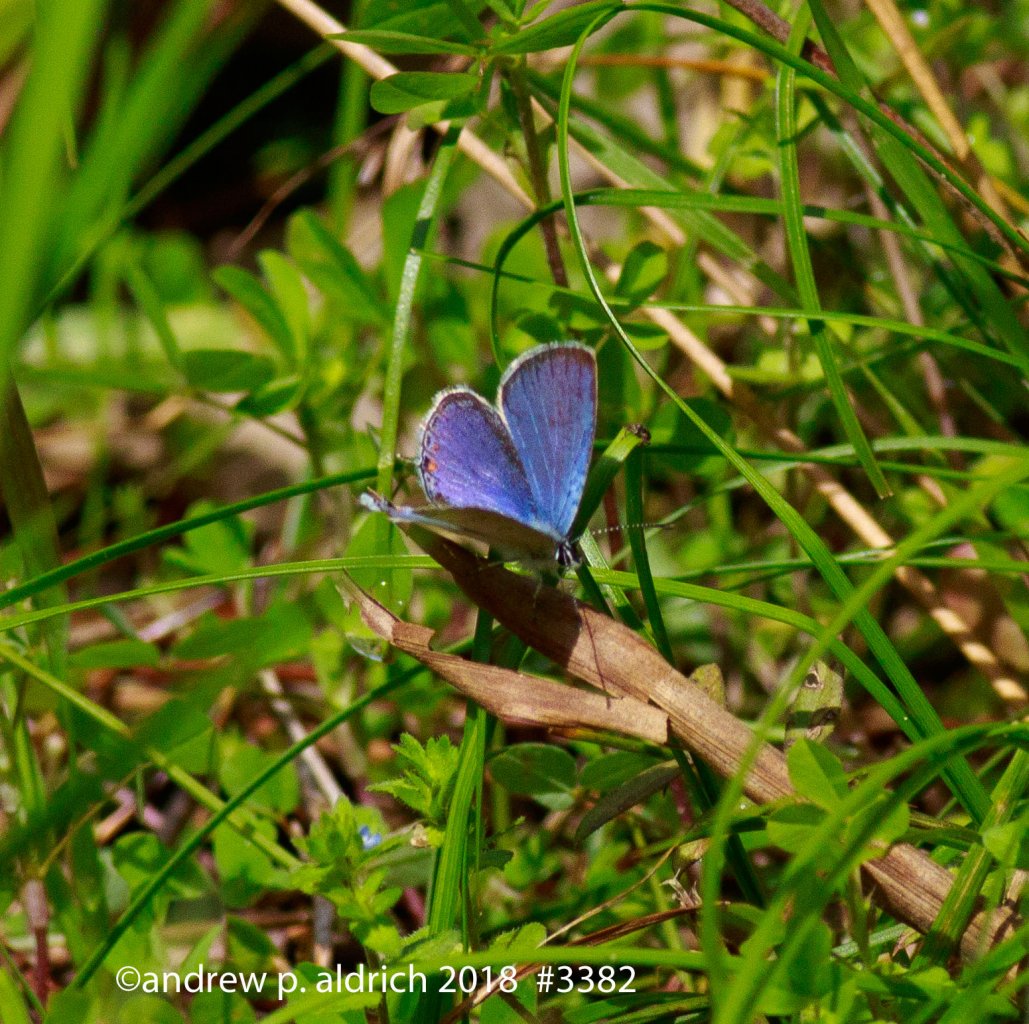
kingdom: Animalia
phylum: Arthropoda
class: Insecta
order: Lepidoptera
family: Lycaenidae
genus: Elkalyce
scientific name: Elkalyce comyntas
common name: Eastern Tailed-Blue
